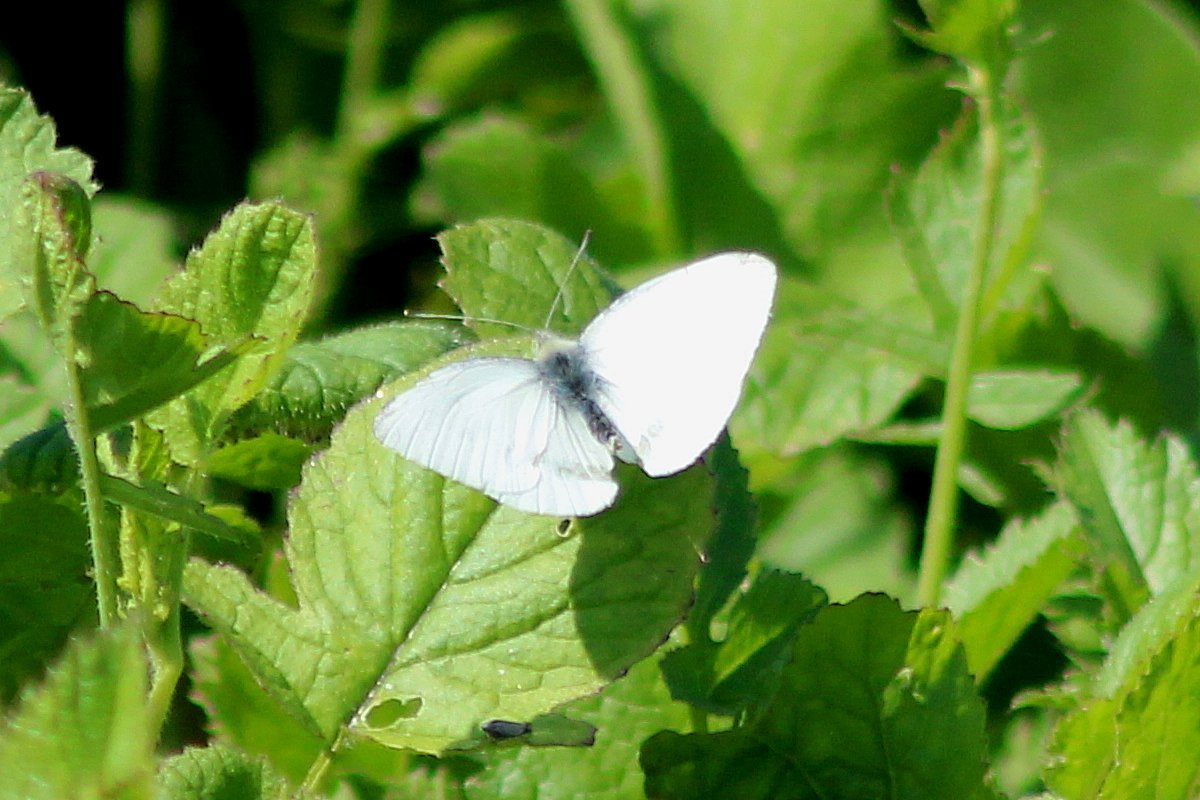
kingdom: Animalia
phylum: Arthropoda
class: Insecta
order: Lepidoptera
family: Pieridae
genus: Pieris
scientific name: Pieris oleracea
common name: Mustard White
